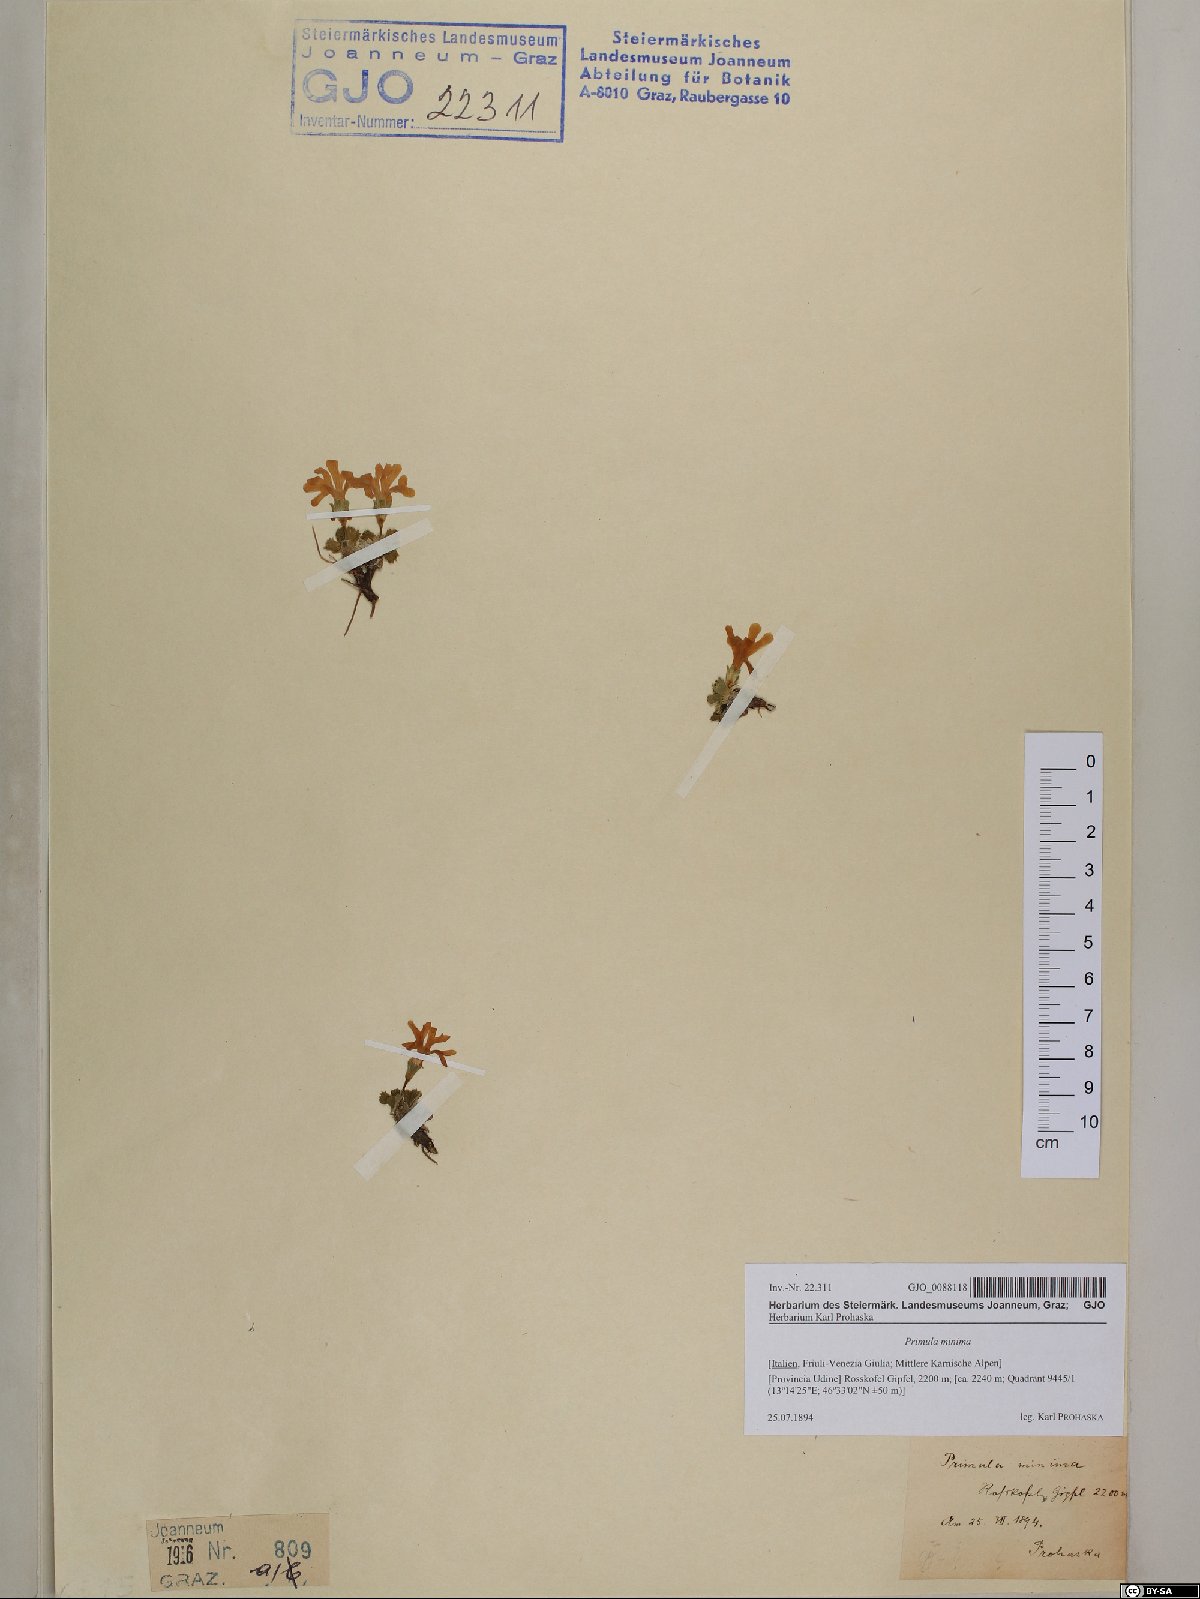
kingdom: Plantae
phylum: Tracheophyta
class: Magnoliopsida
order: Ericales
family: Primulaceae
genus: Primula
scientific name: Primula minima
